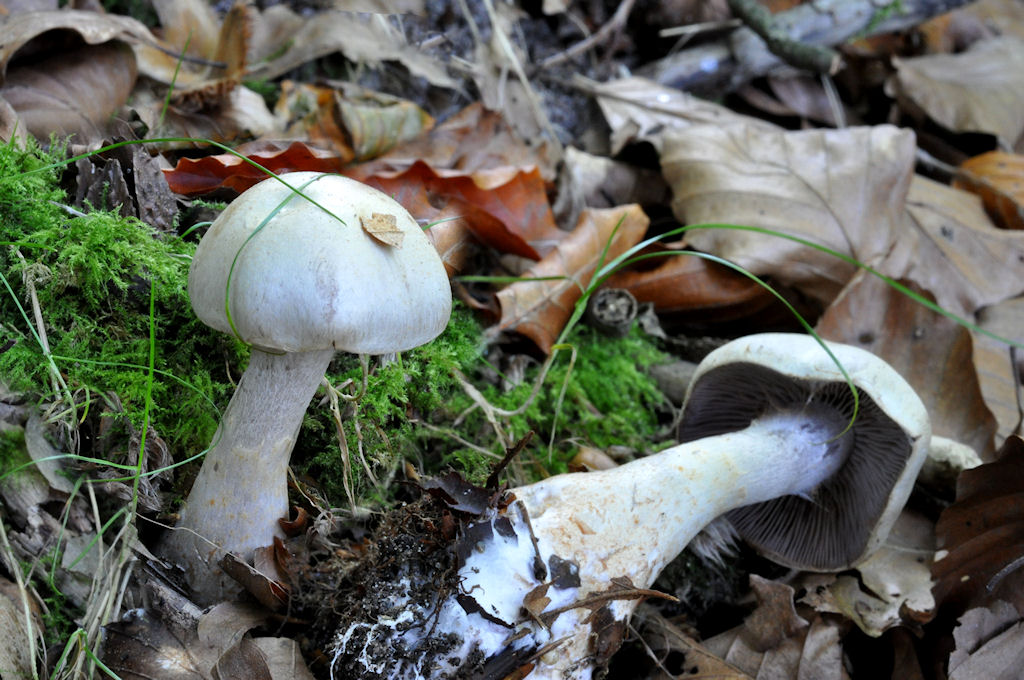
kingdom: Fungi
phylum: Basidiomycota
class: Agaricomycetes
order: Agaricales
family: Cortinariaceae
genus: Cortinarius
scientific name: Cortinarius lebretonii
